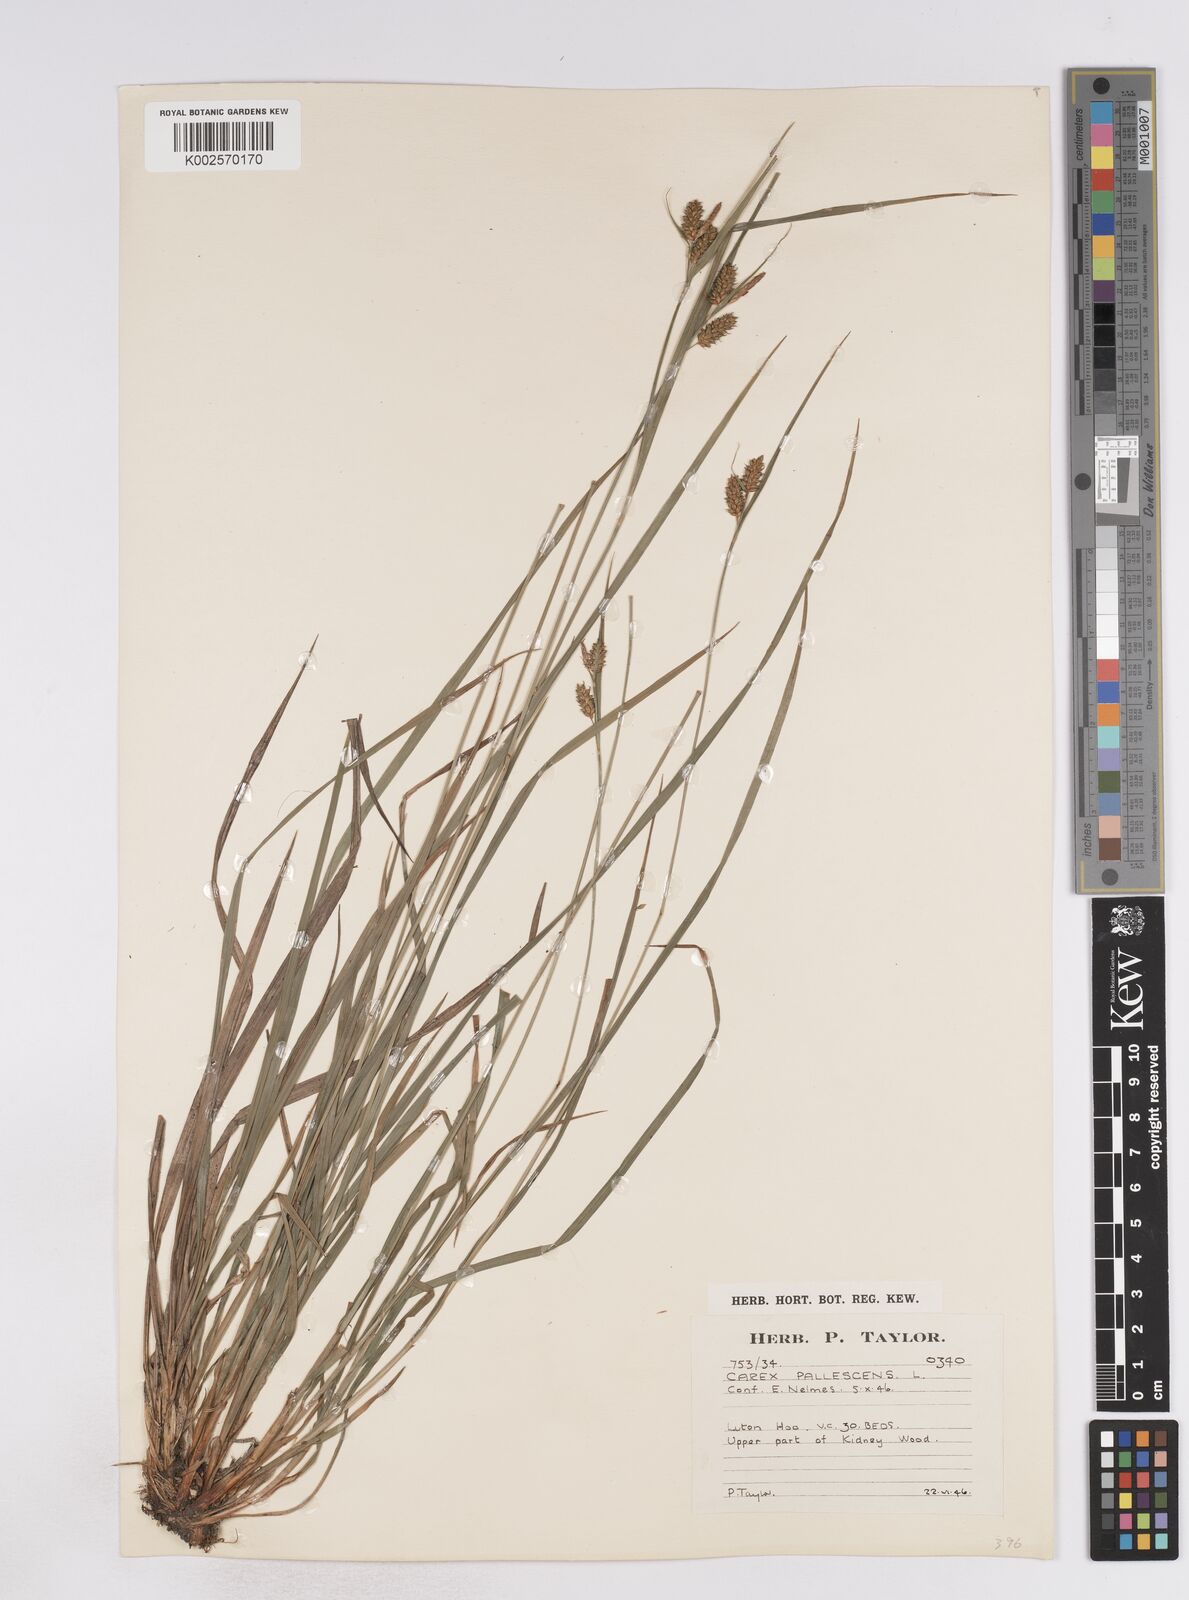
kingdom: Plantae
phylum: Tracheophyta
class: Liliopsida
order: Poales
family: Cyperaceae
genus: Carex
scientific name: Carex pallescens
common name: Pale sedge
